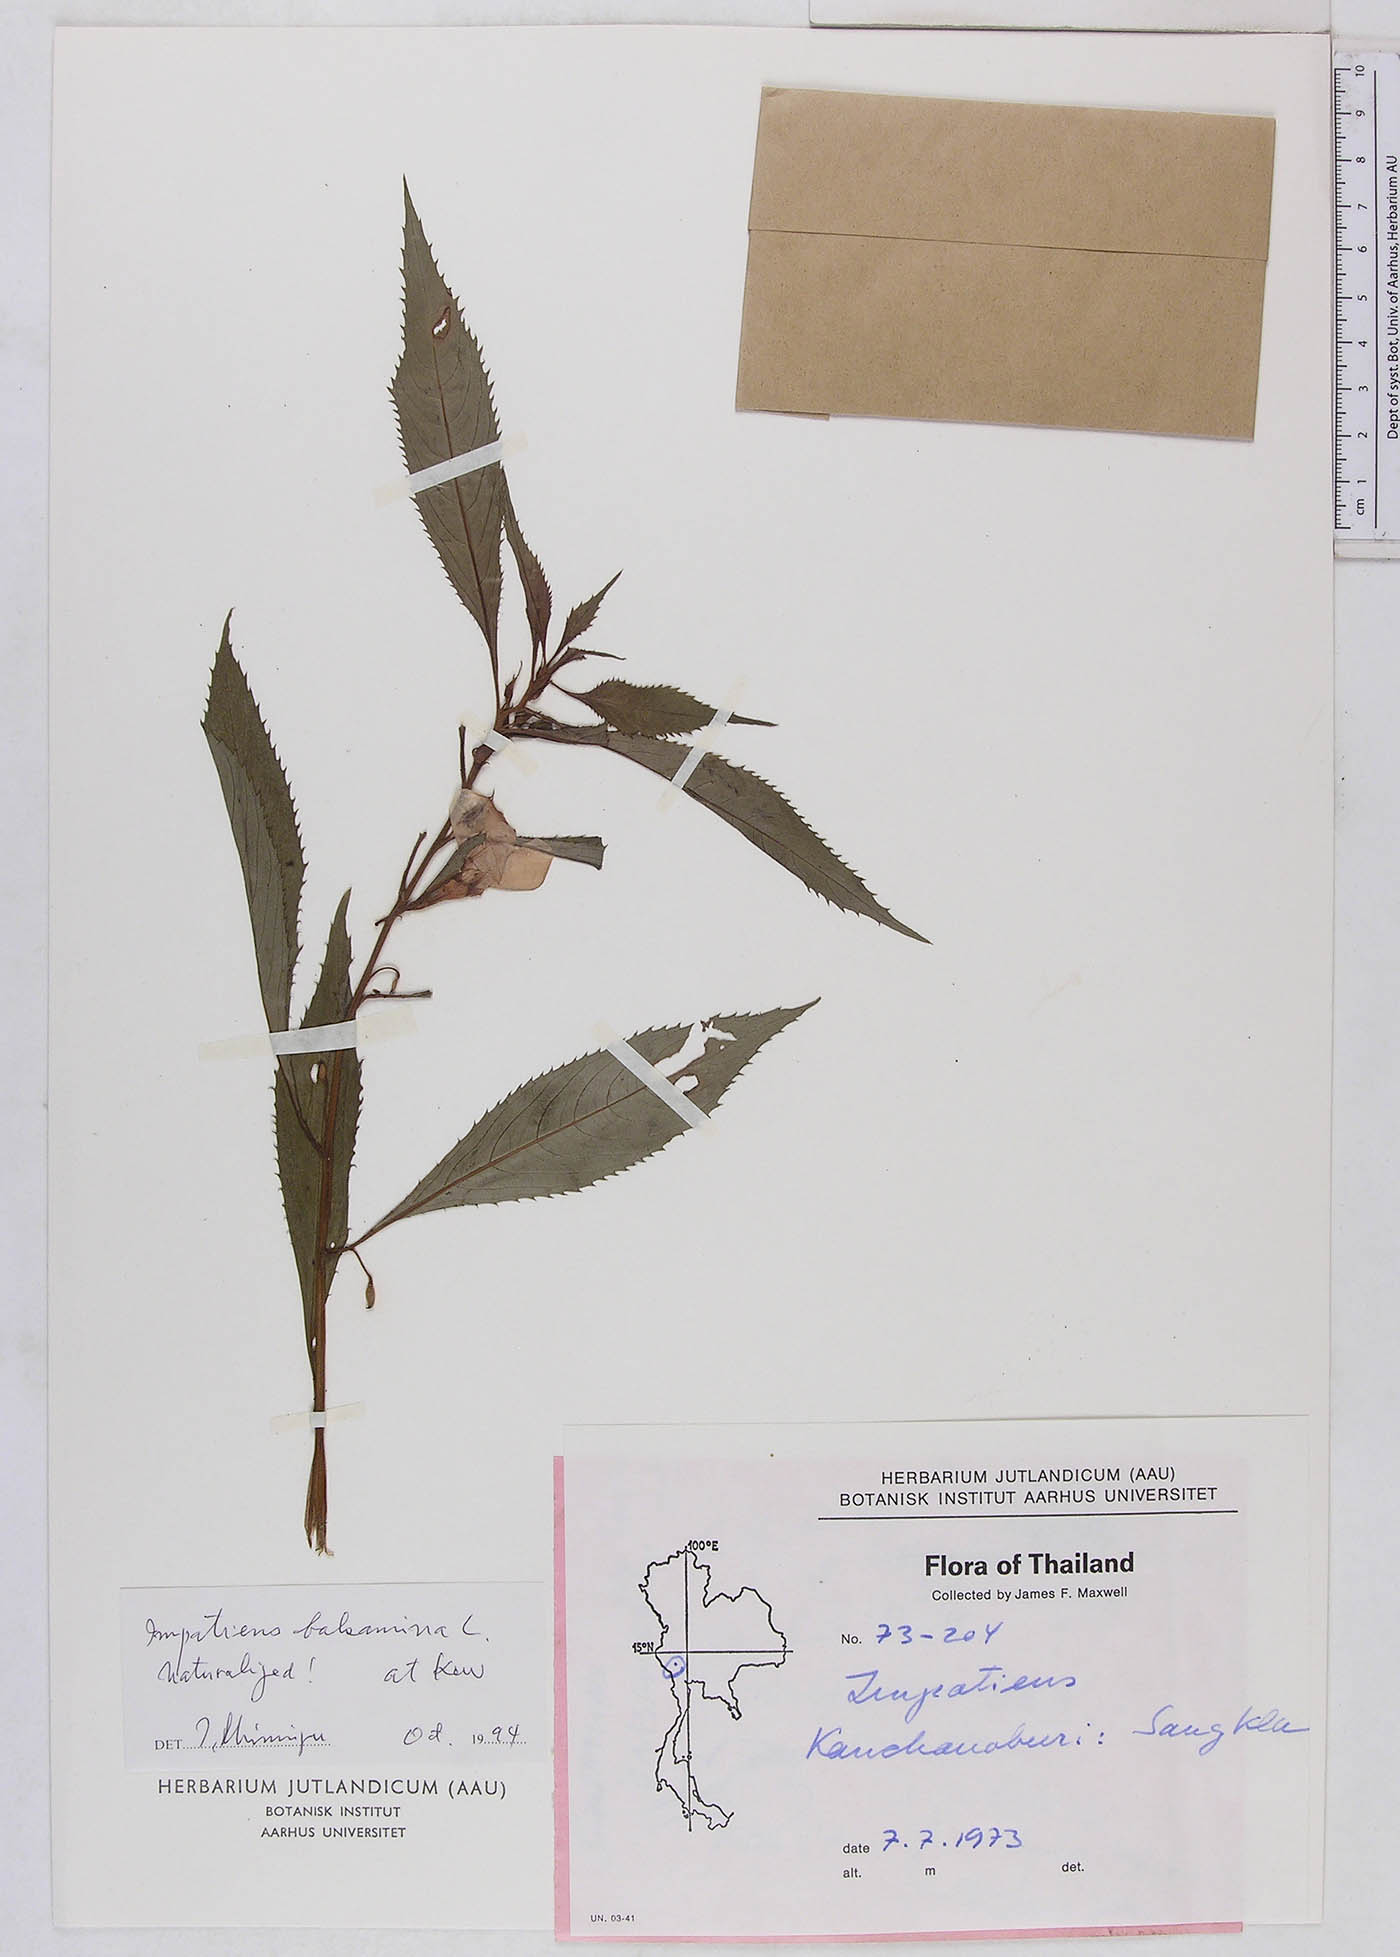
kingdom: Plantae
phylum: Tracheophyta
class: Magnoliopsida
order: Ericales
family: Balsaminaceae
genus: Impatiens
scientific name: Impatiens balsamina
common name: Balsam
